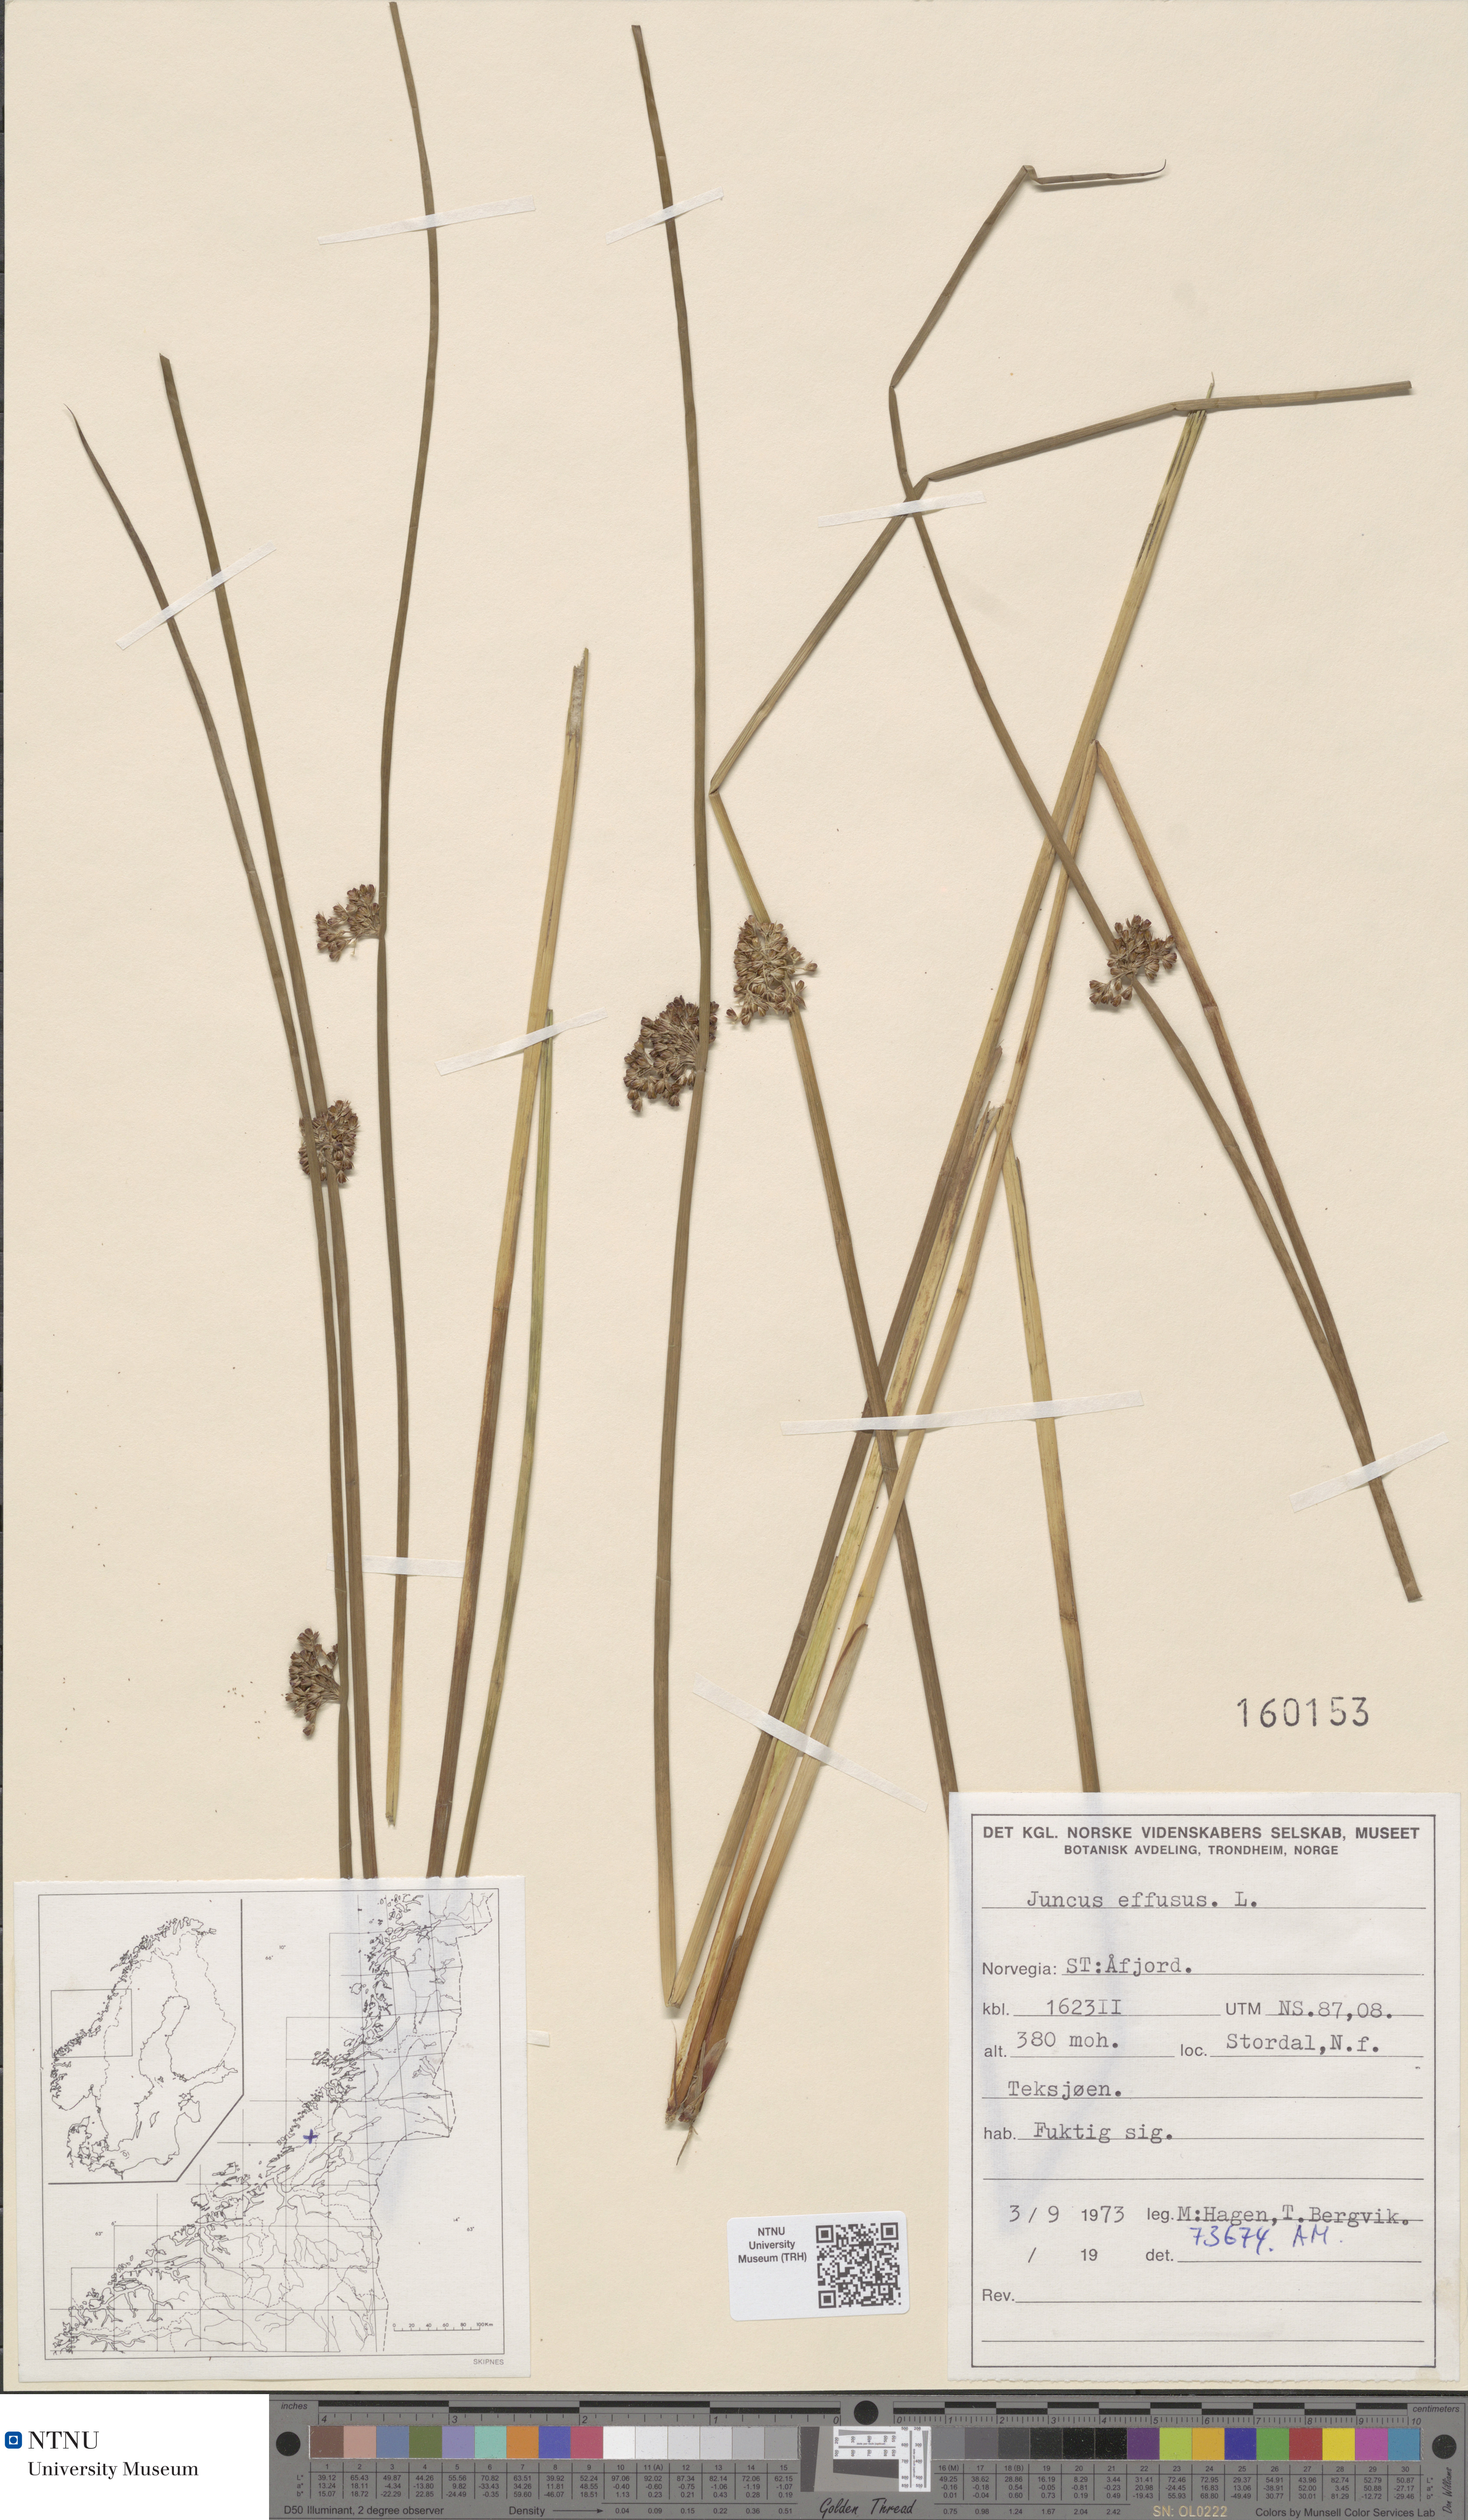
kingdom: Plantae
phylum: Tracheophyta
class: Liliopsida
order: Poales
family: Juncaceae
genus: Juncus
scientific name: Juncus effusus
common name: Soft rush
